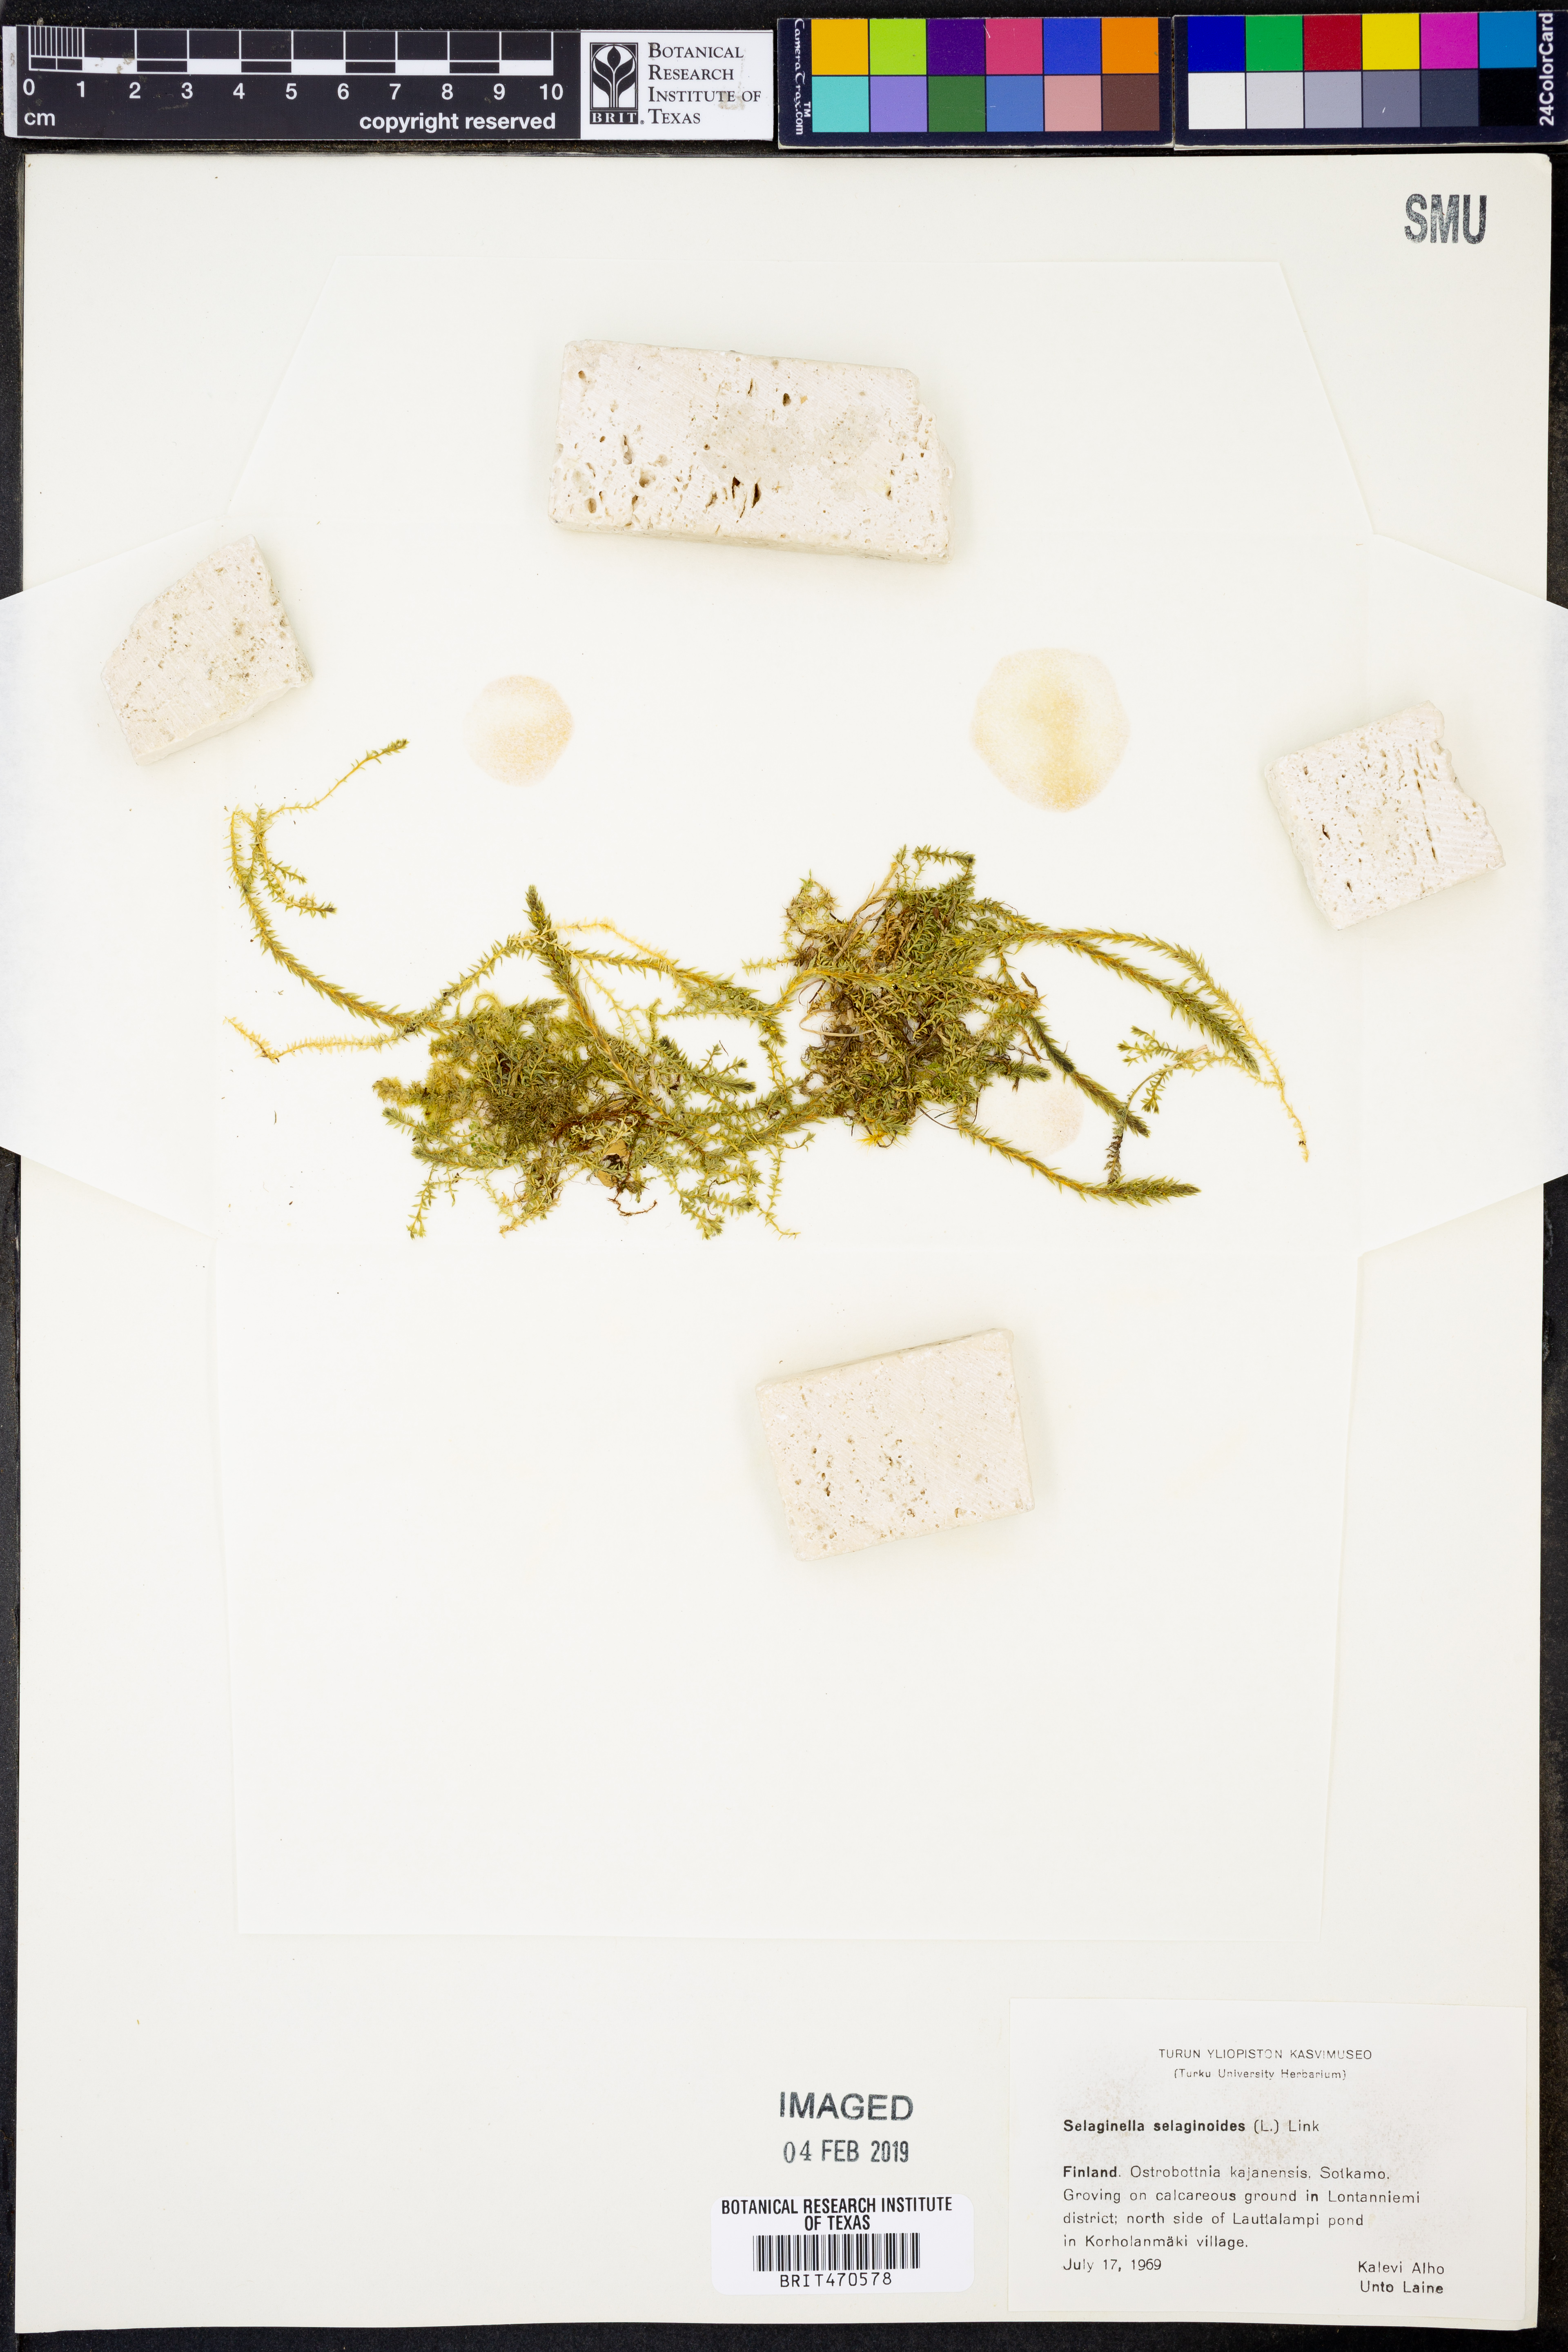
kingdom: Plantae
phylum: Tracheophyta
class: Lycopodiopsida
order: Selaginellales
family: Selaginellaceae
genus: Selaginella
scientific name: Selaginella selaginoides
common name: Prickly mountain-moss
